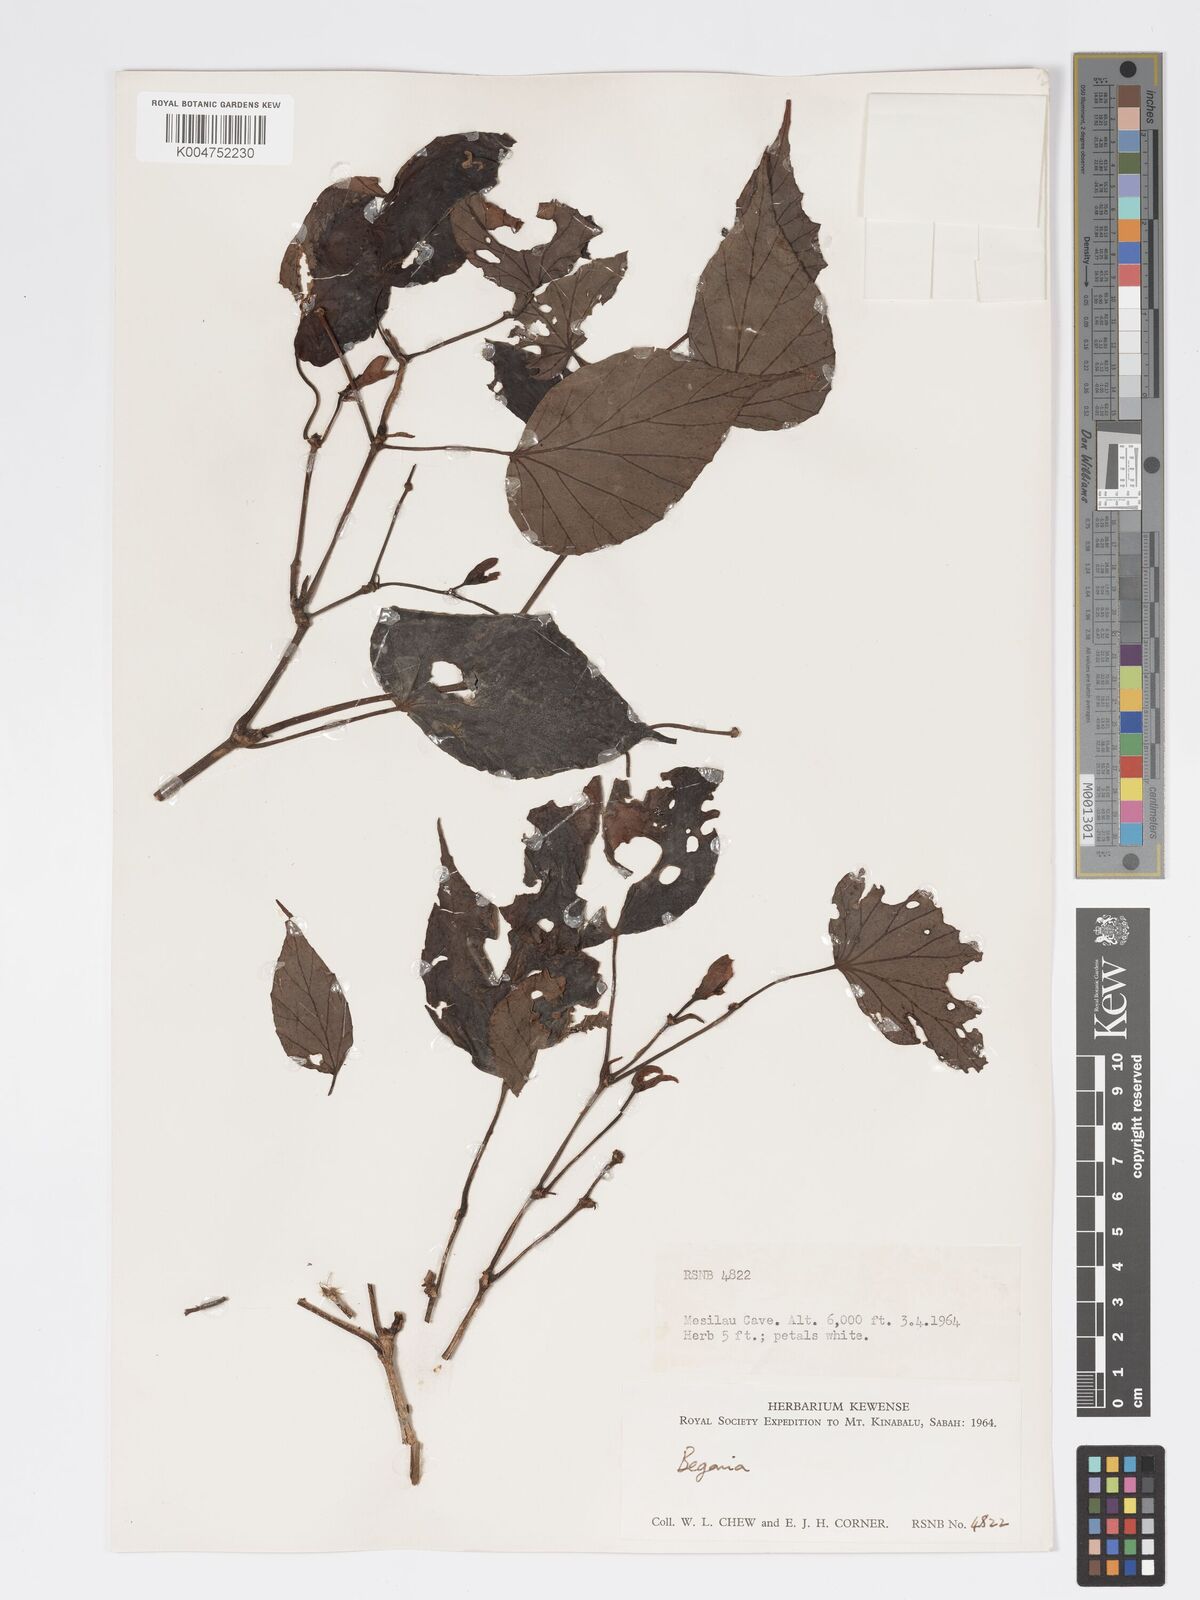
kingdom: Plantae
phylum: Tracheophyta
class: Magnoliopsida
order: Cucurbitales
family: Begoniaceae
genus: Begonia
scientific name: Begonia burbidgei
